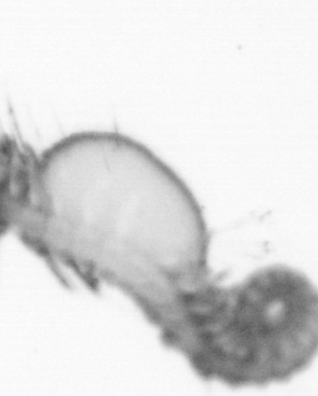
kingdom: Animalia
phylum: Annelida
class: Polychaeta
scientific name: Polychaeta
